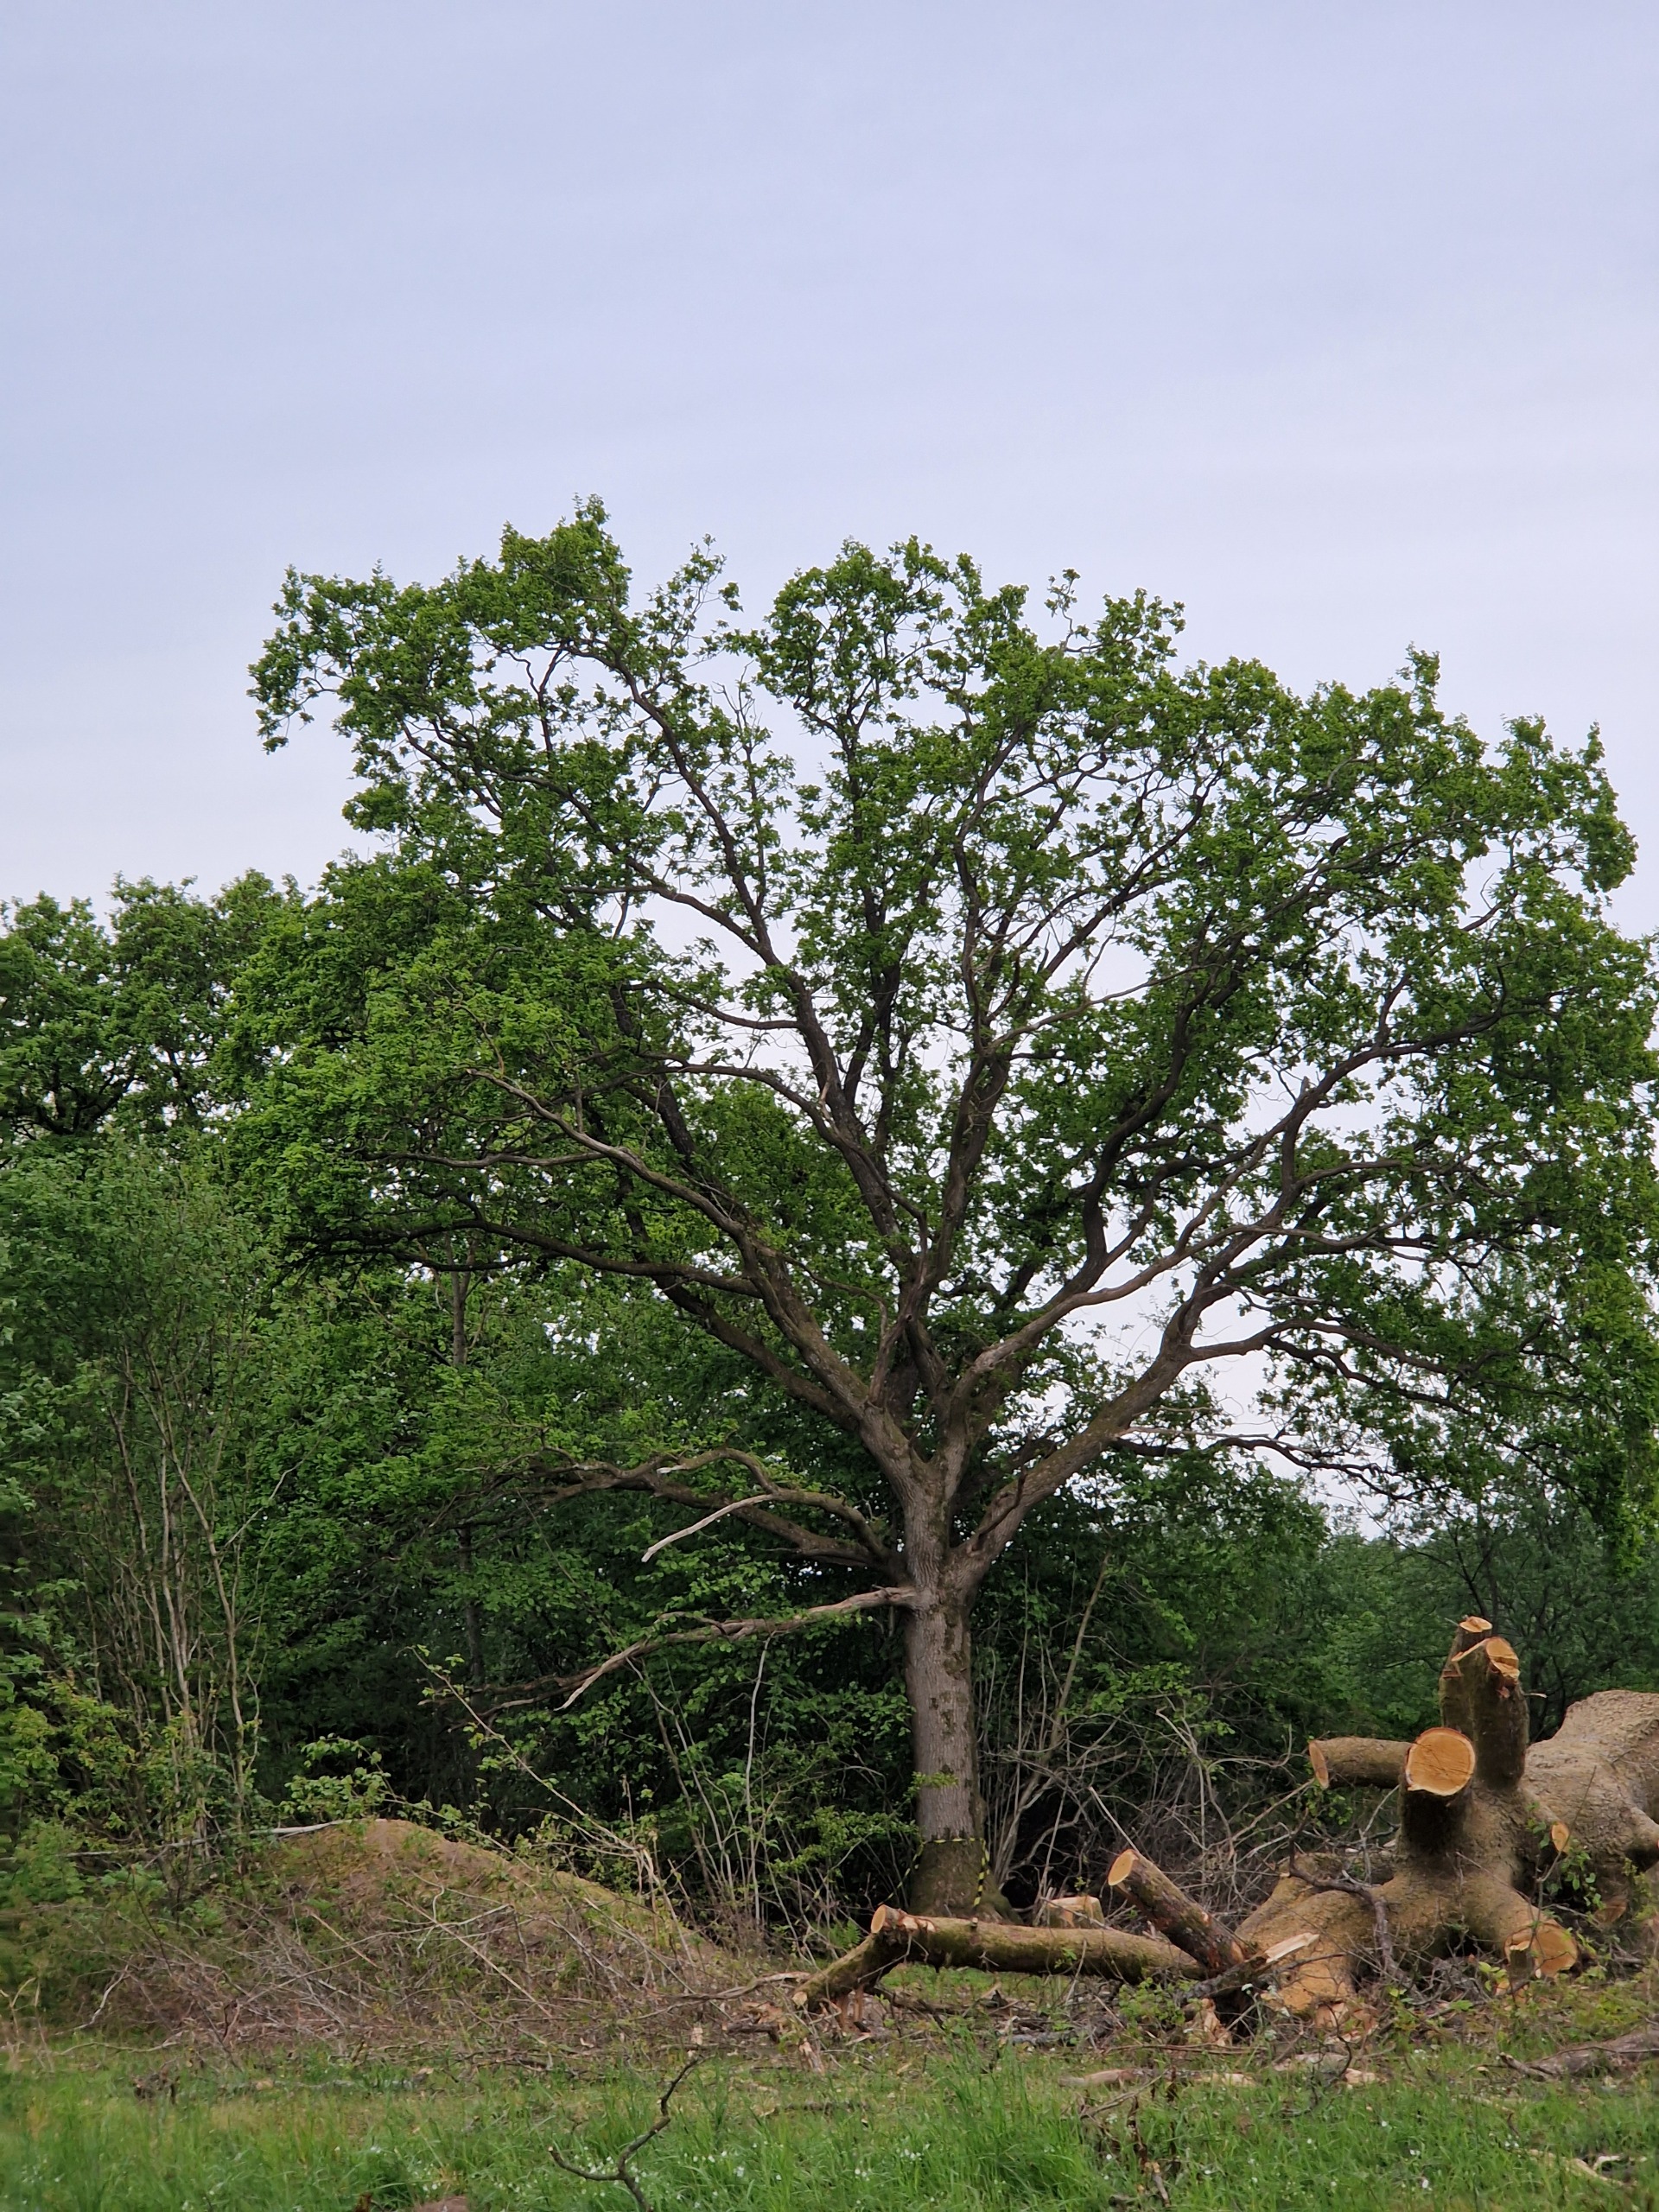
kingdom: Animalia
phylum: Chordata
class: Aves
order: Piciformes
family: Picidae
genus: Dendrocopos
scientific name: Dendrocopos major
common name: Stor flagspætte
